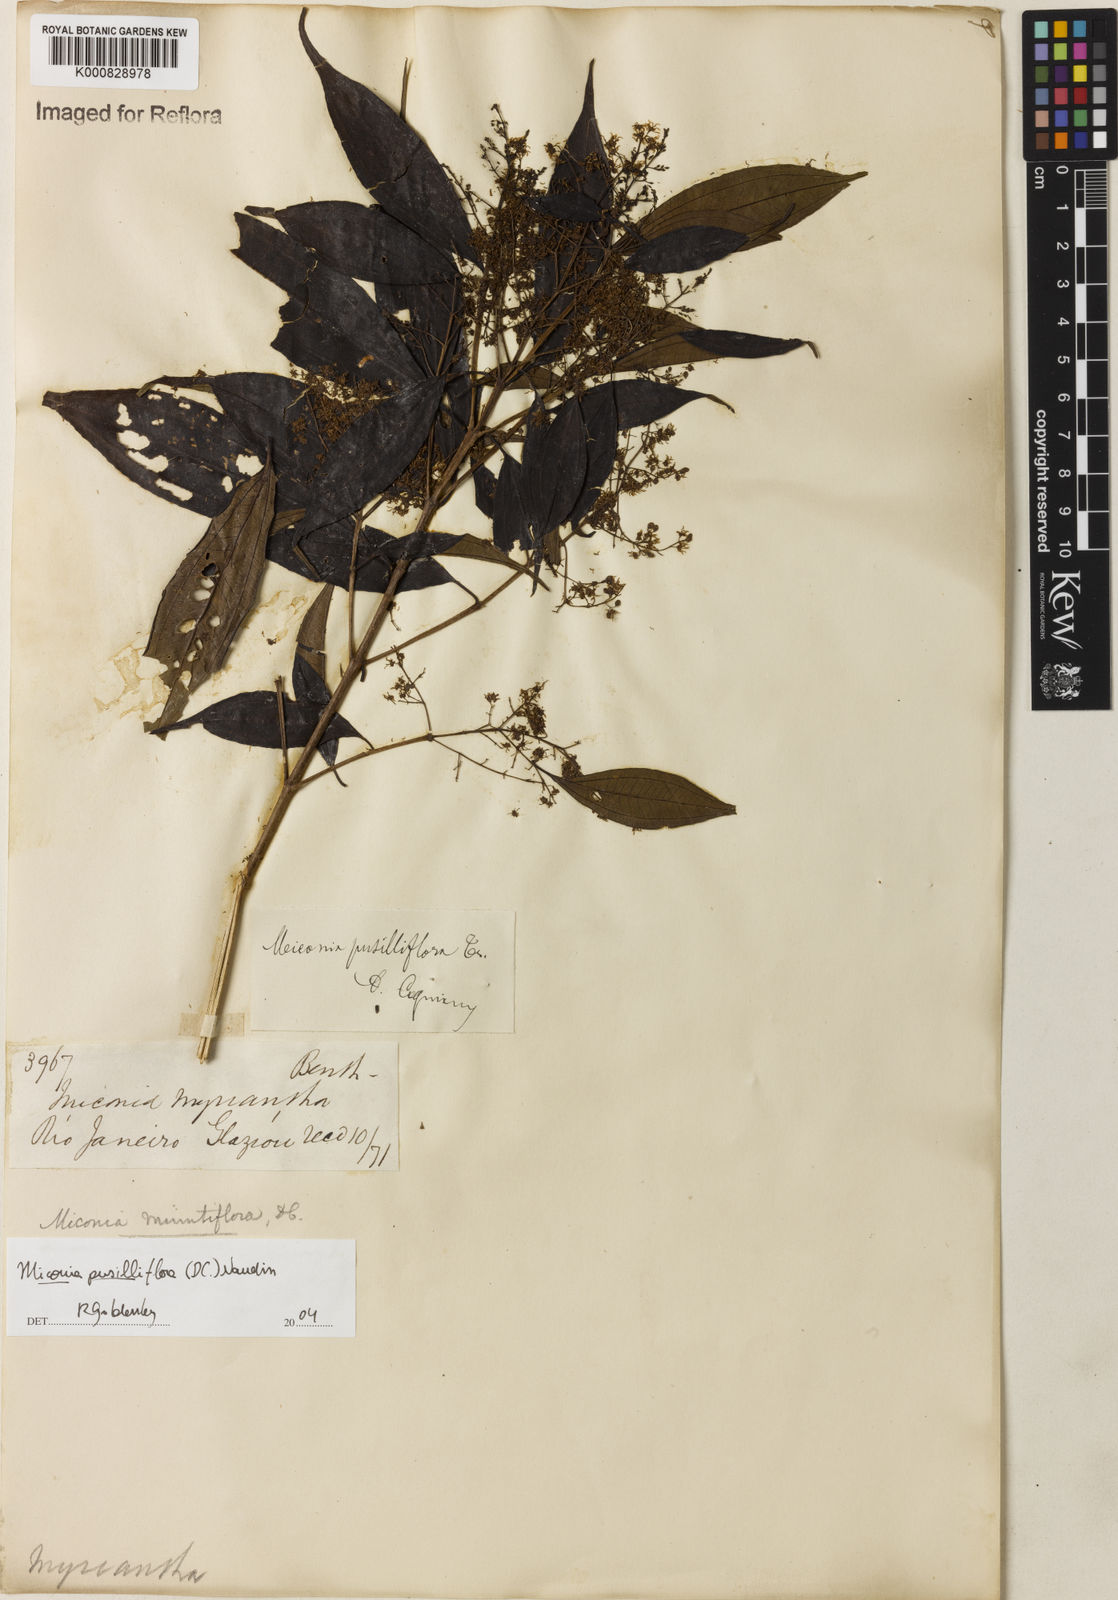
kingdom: Plantae
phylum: Tracheophyta
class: Magnoliopsida
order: Myrtales
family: Melastomataceae
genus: Miconia
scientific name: Miconia pusilliflora
